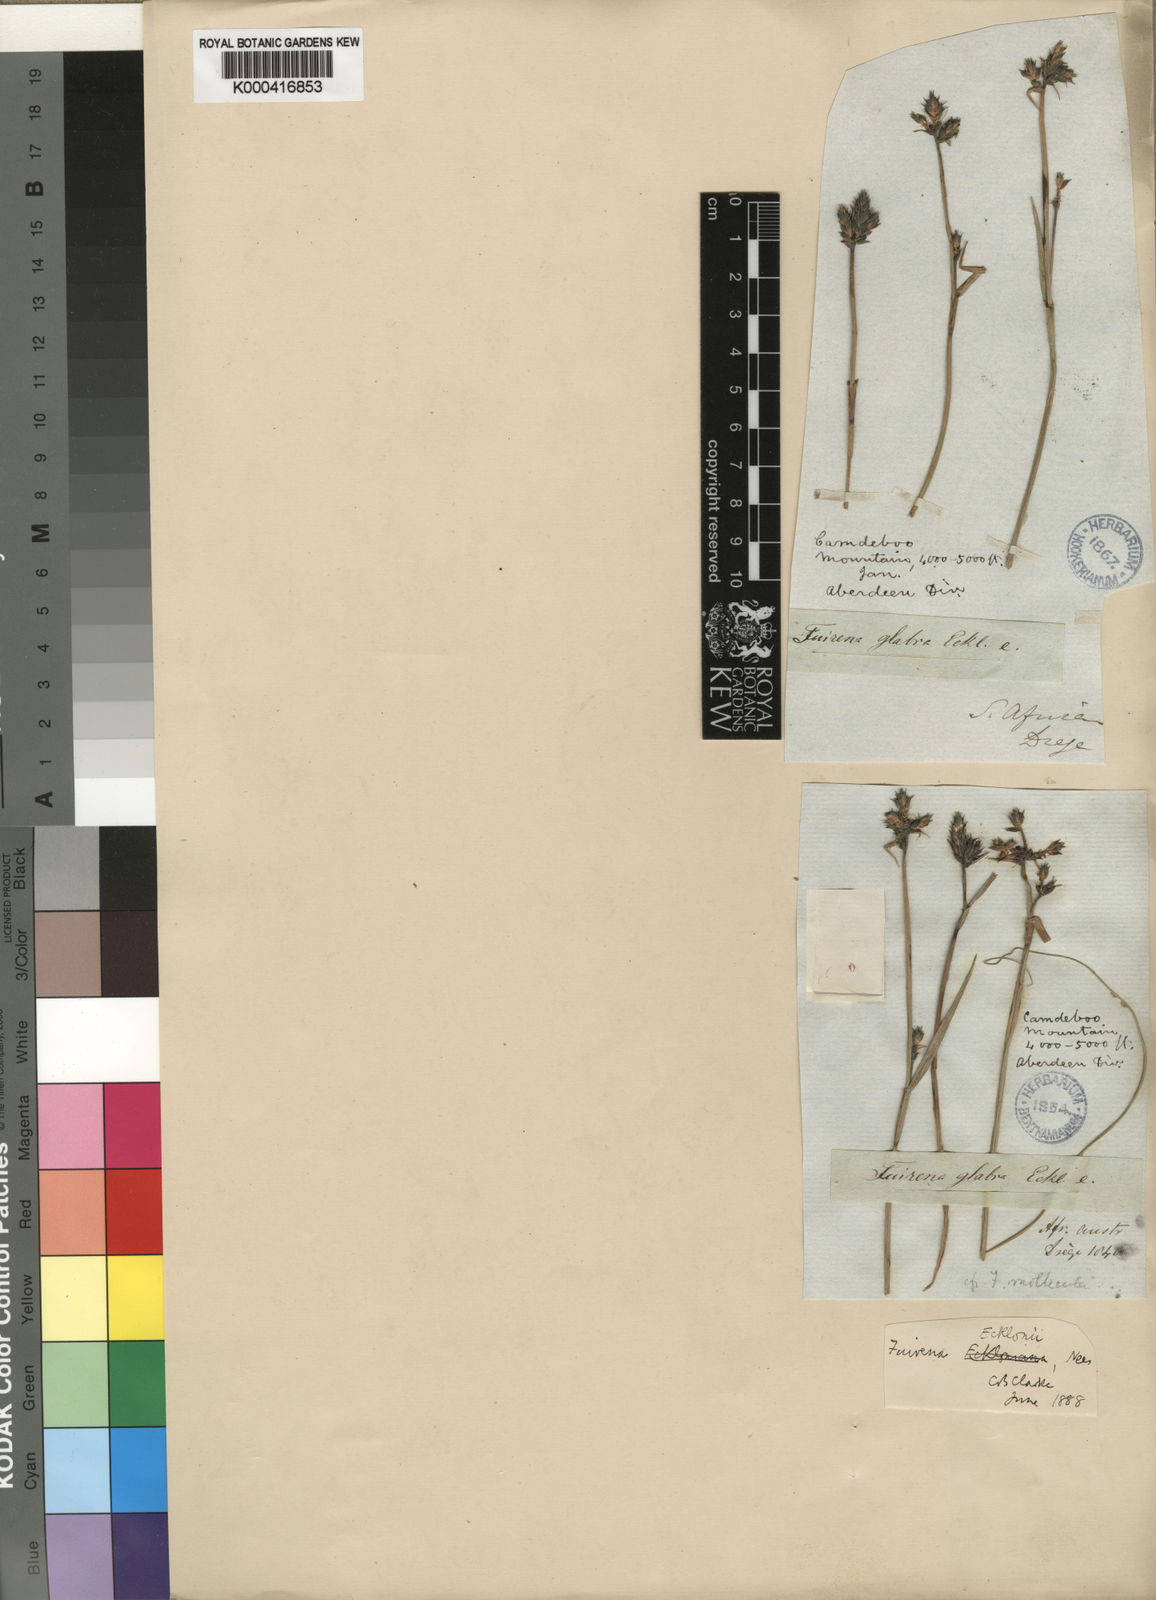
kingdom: Plantae
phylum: Tracheophyta
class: Liliopsida
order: Poales
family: Cyperaceae
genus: Fuirena
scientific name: Fuirena ecklonii
